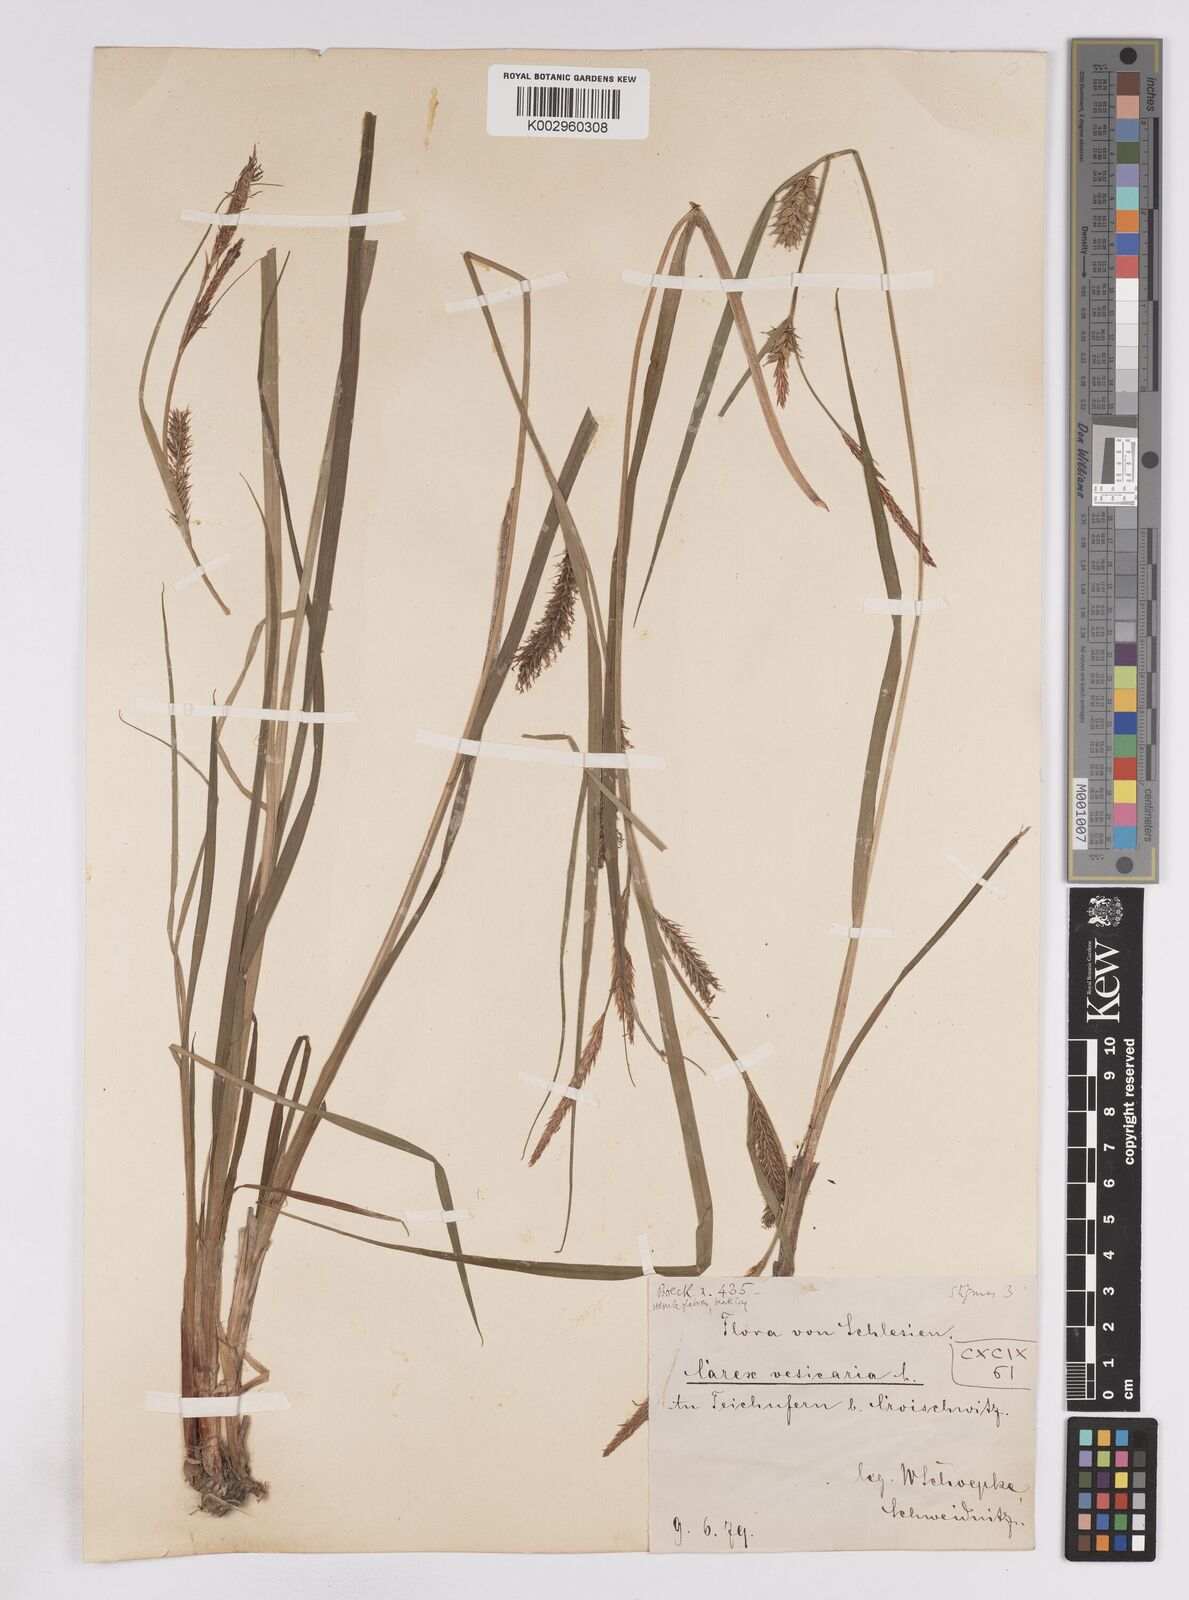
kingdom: Plantae
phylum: Tracheophyta
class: Liliopsida
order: Poales
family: Cyperaceae
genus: Carex
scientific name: Carex vesicaria
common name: Bladder-sedge
